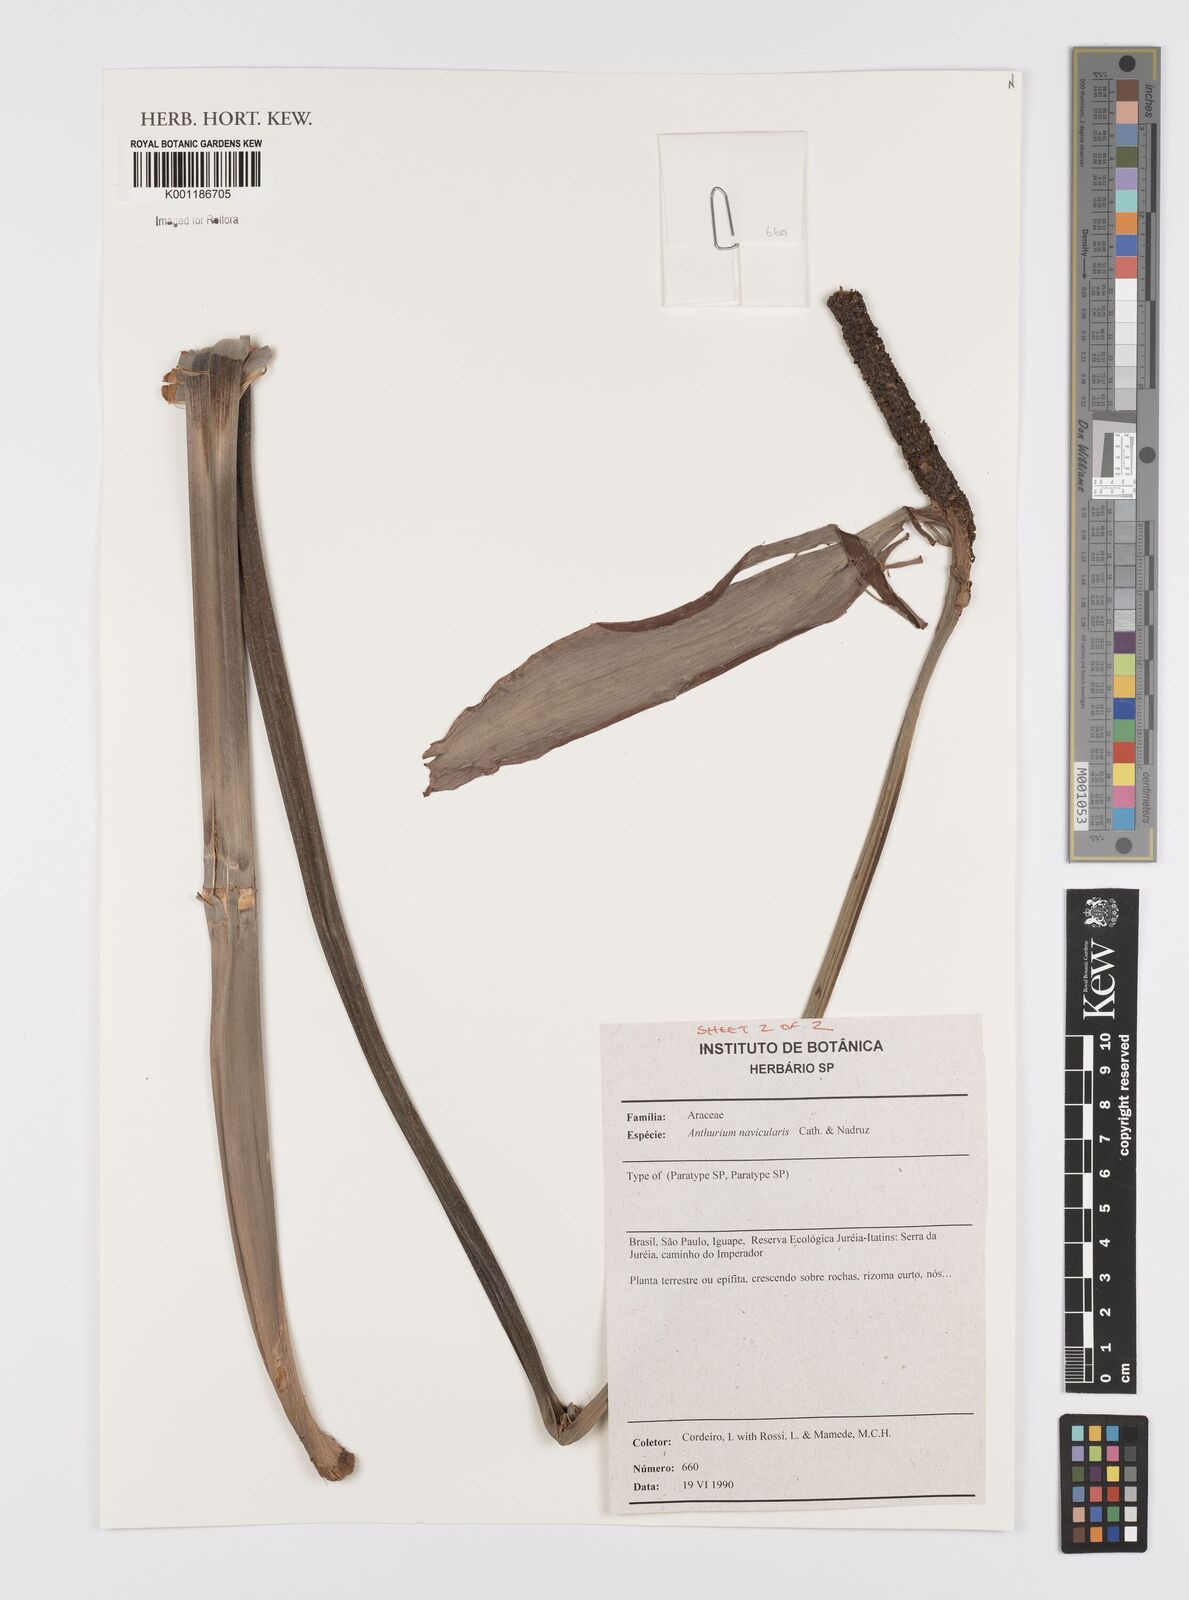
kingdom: Plantae
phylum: Tracheophyta
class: Liliopsida
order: Alismatales
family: Araceae
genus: Anthurium
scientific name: Anthurium naviculare
